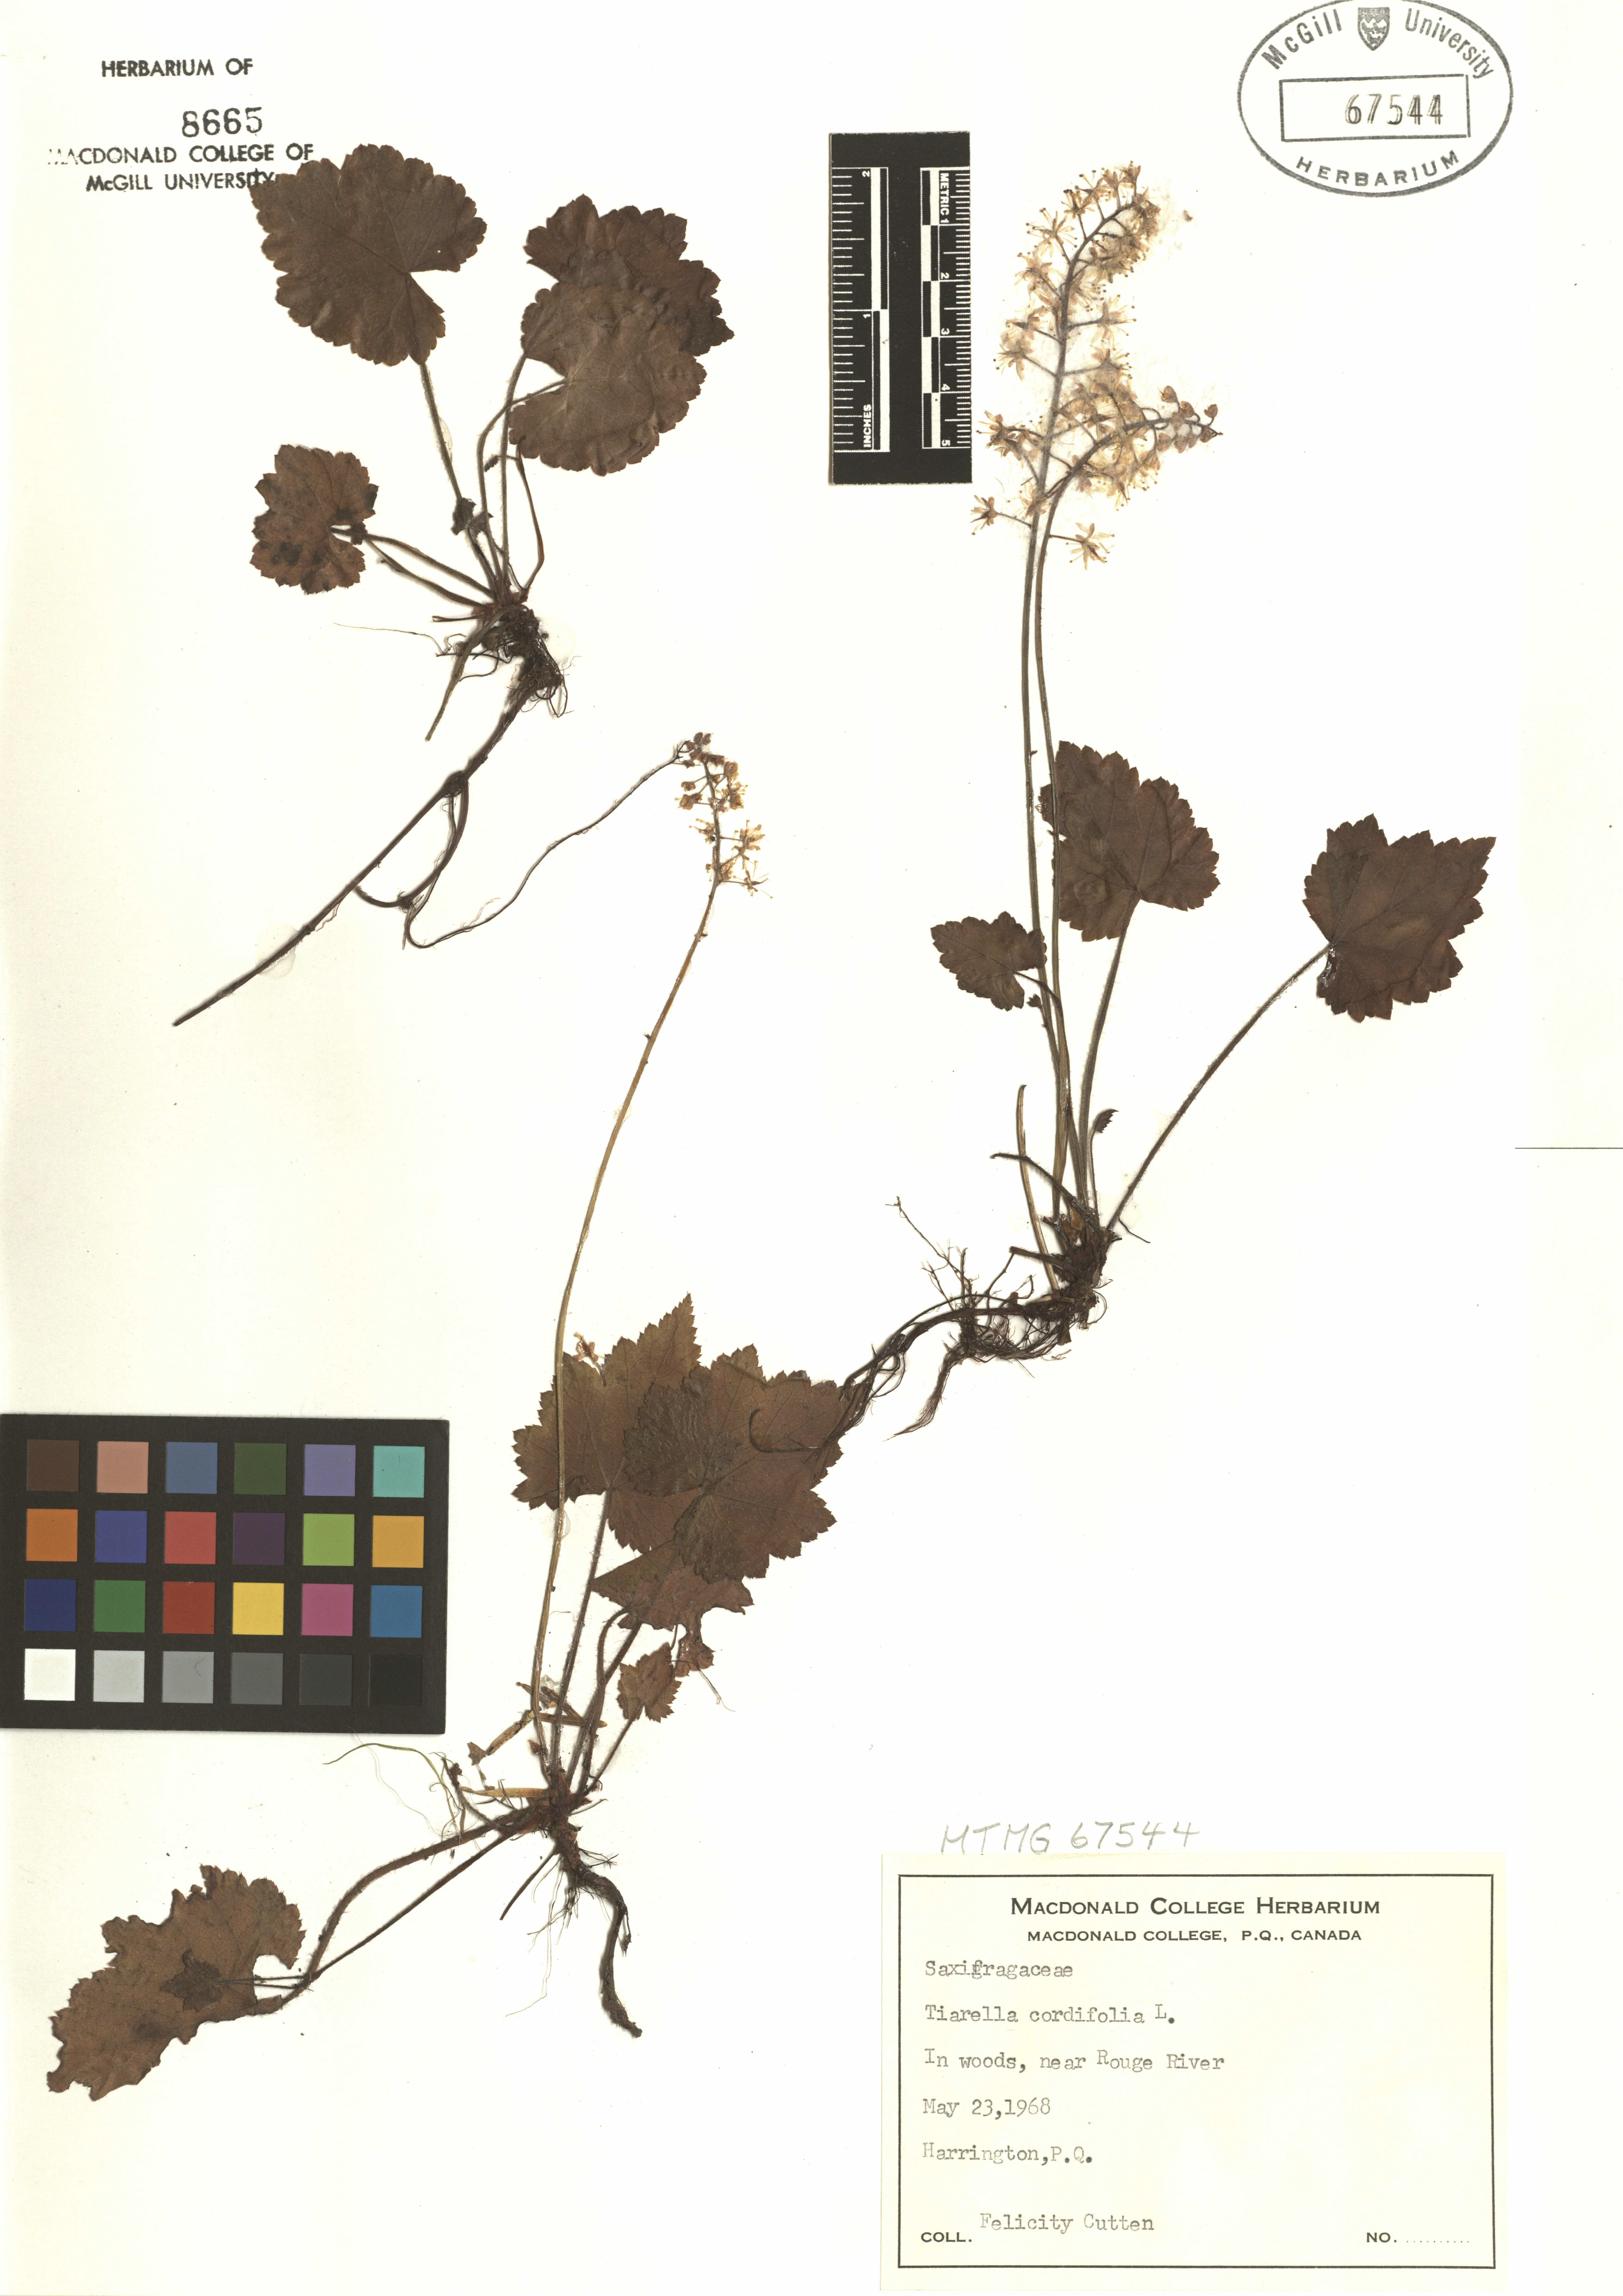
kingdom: Plantae
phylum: Tracheophyta
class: Magnoliopsida
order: Saxifragales
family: Saxifragaceae
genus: Tiarella
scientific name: Tiarella cordifolia
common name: Foamflower
